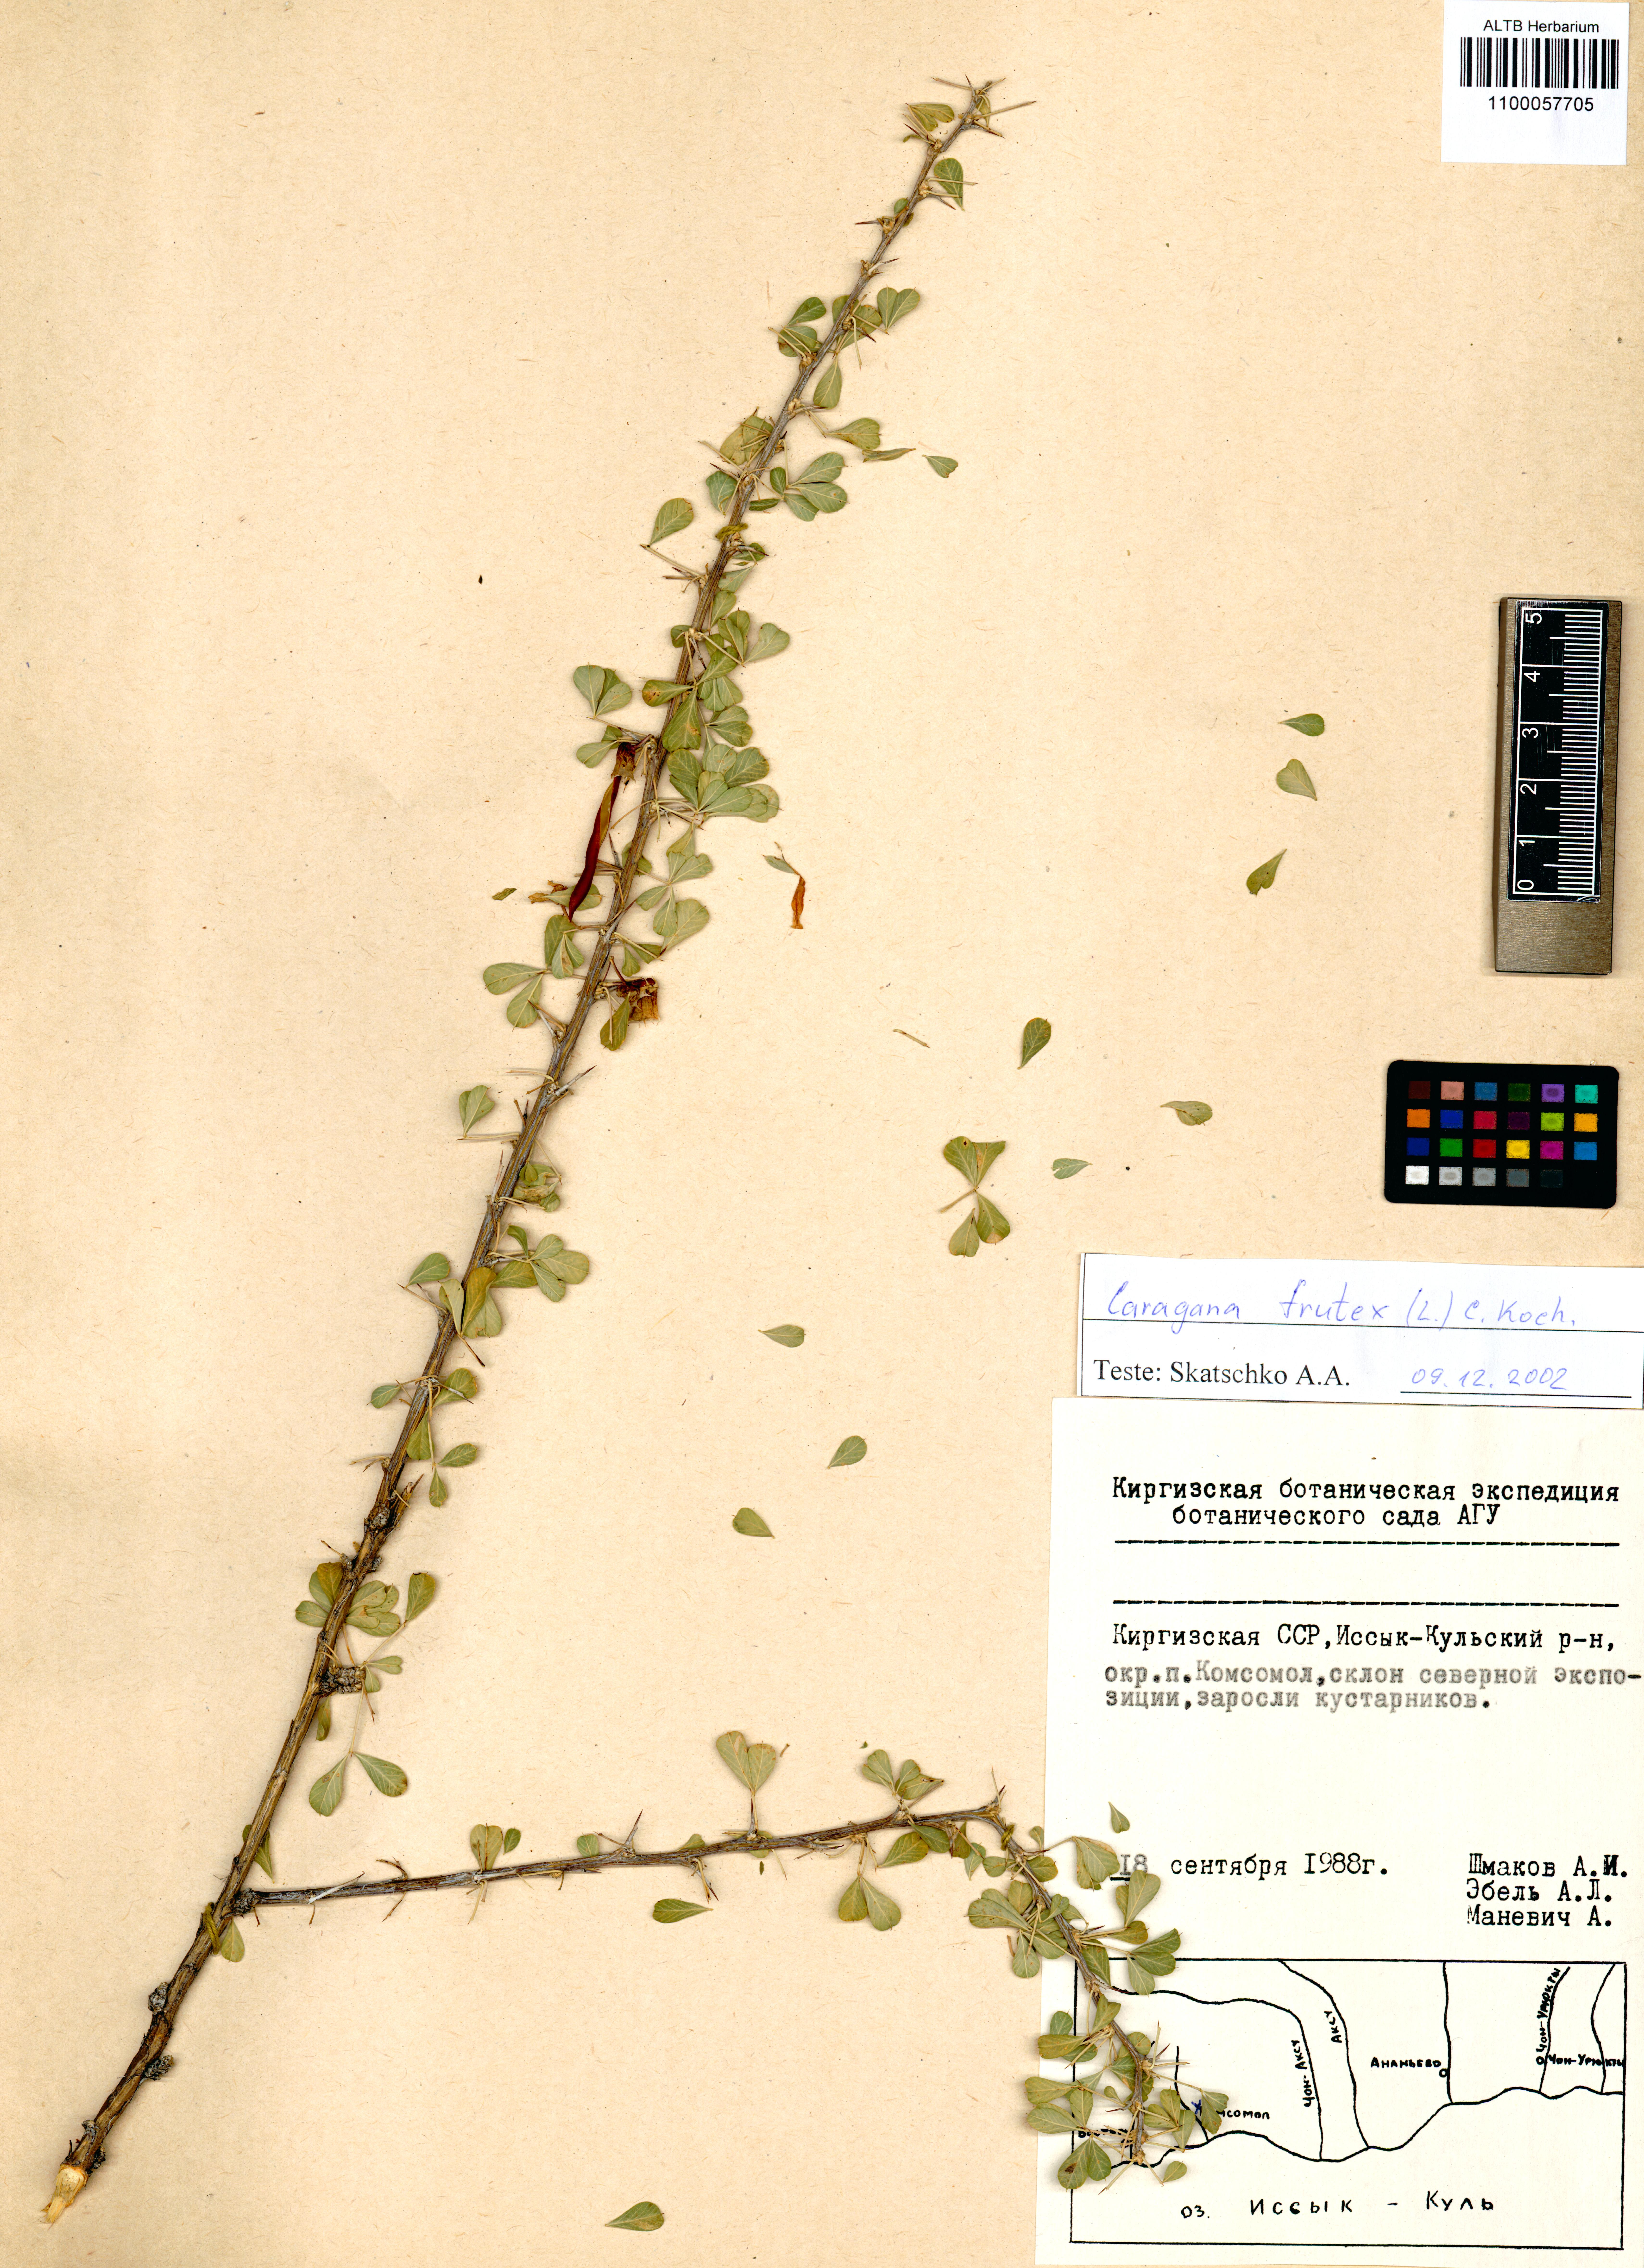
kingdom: Plantae
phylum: Tracheophyta
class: Magnoliopsida
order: Fabales
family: Fabaceae
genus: Caragana
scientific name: Caragana frutex
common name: Russian peashrub
